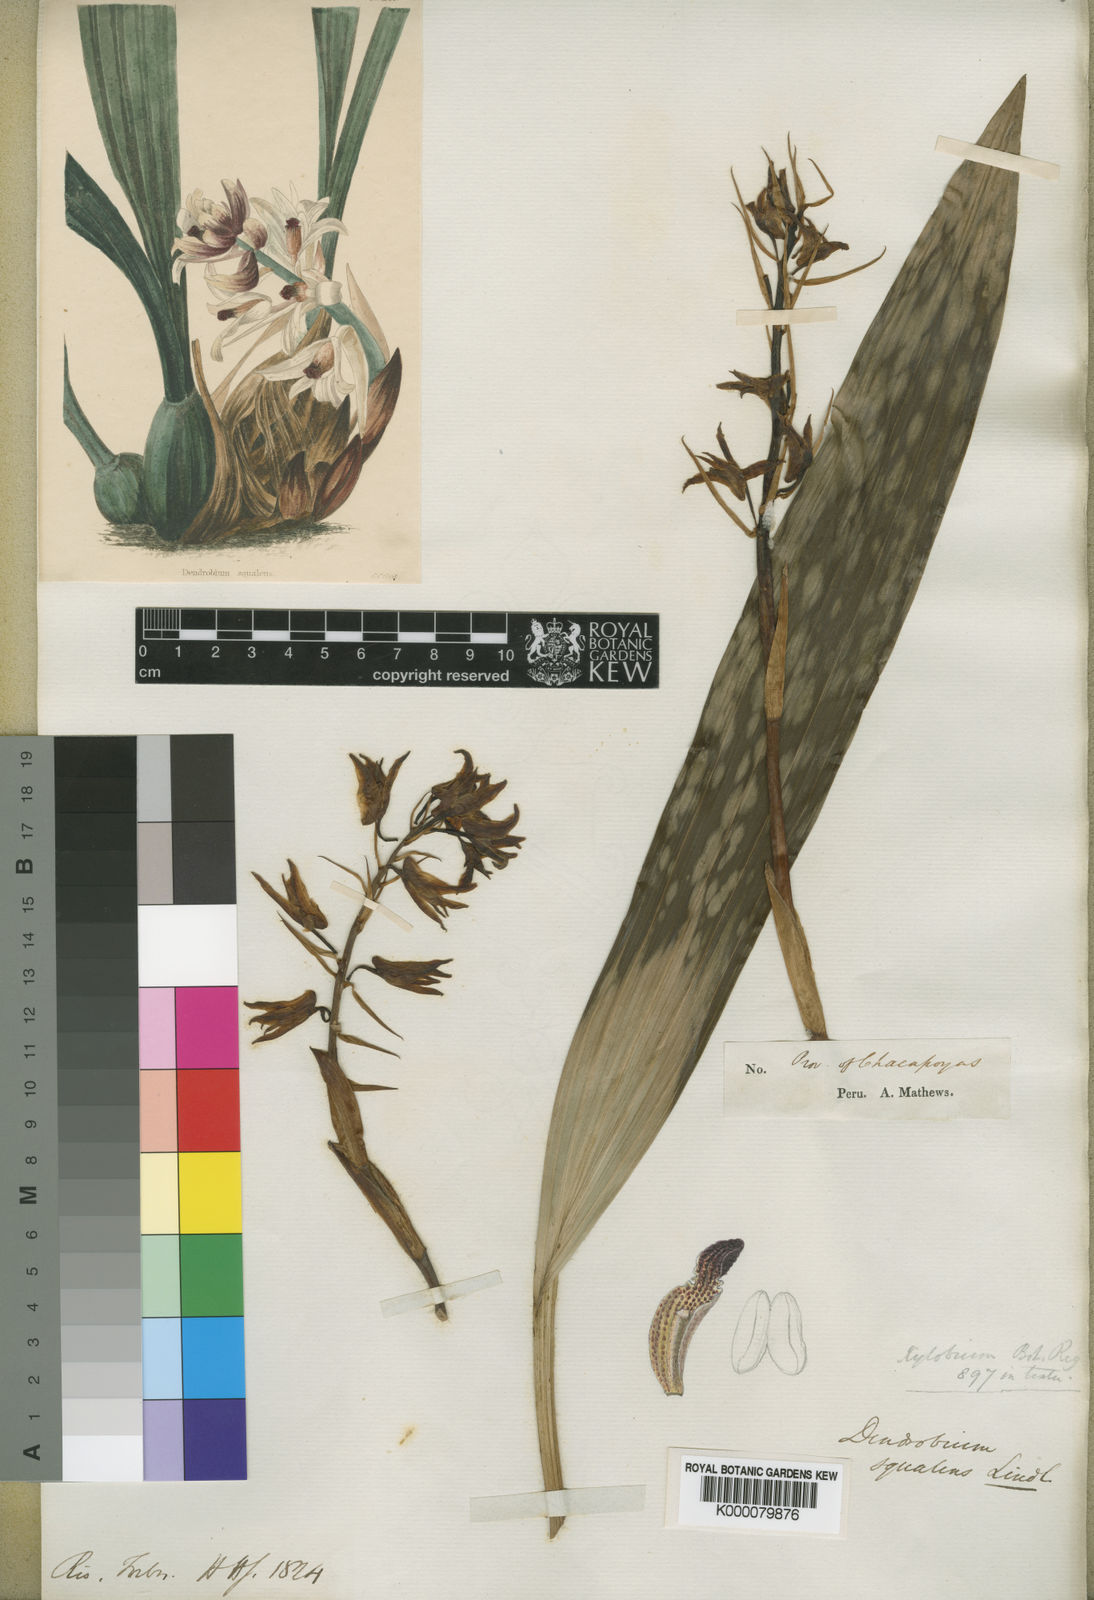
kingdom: Plantae
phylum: Tracheophyta
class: Liliopsida
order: Asparagales
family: Orchidaceae
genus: Xylobium
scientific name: Xylobium squalens
